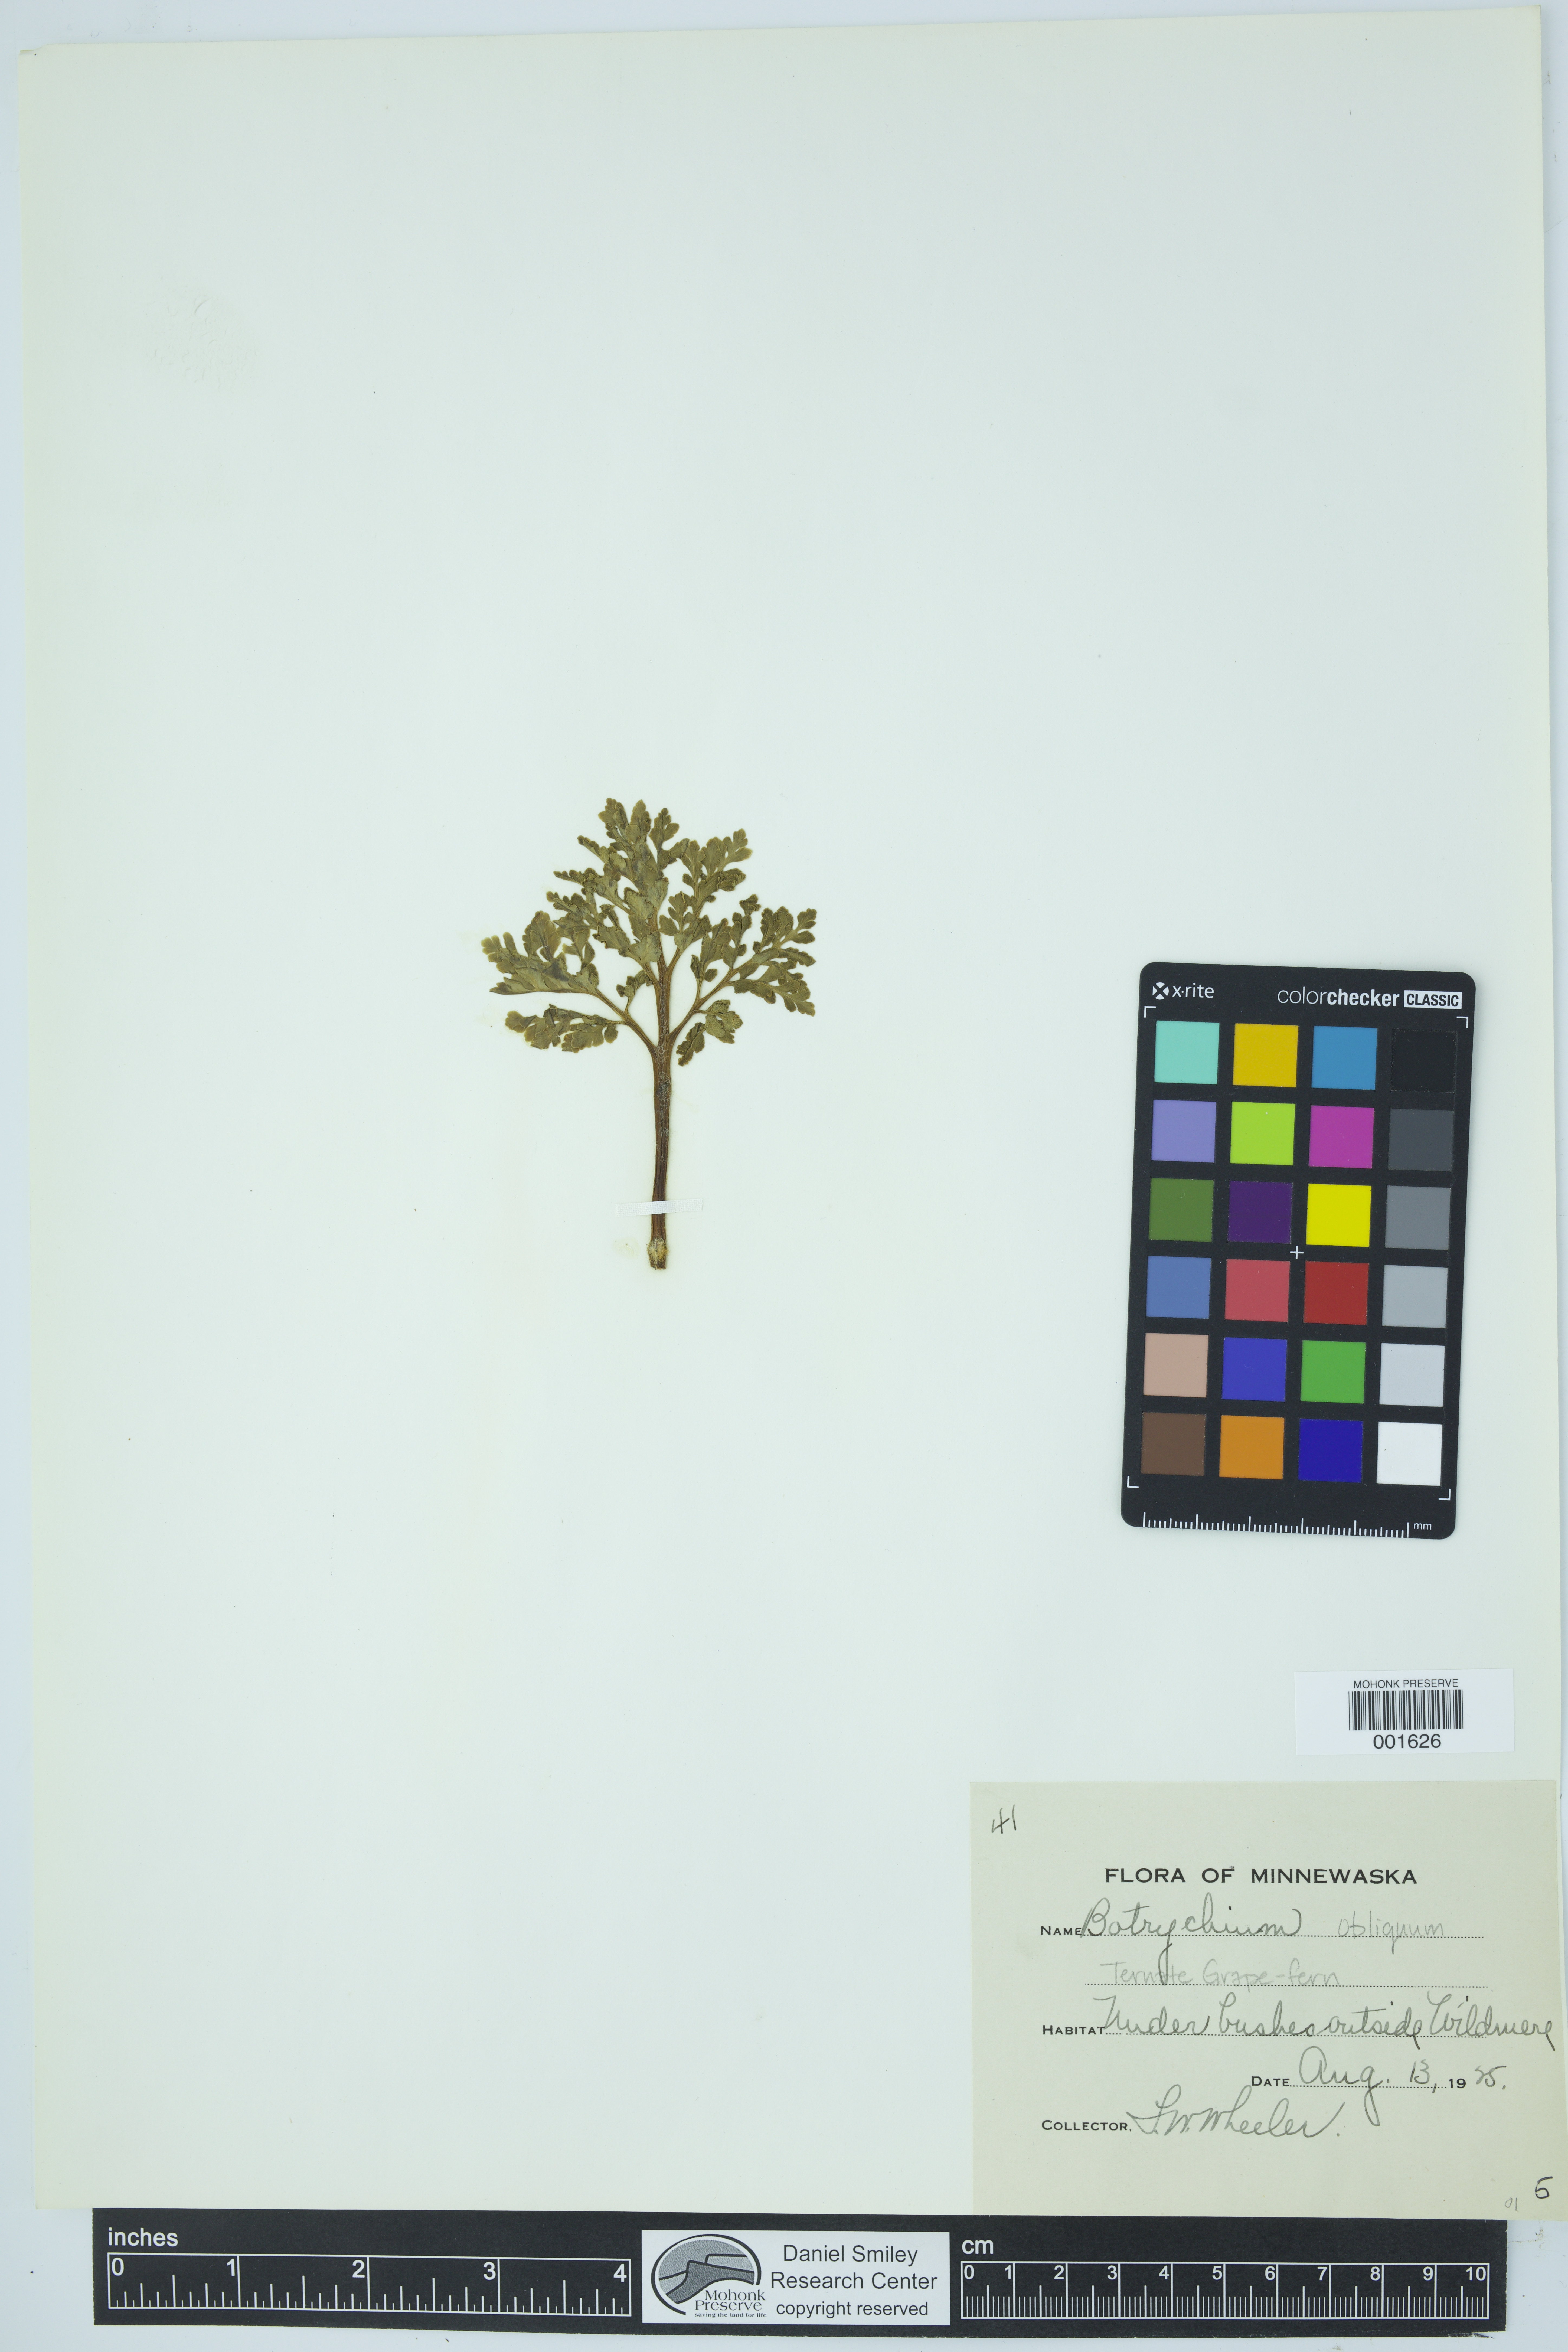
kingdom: Plantae
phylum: Tracheophyta
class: Polypodiopsida
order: Ophioglossales
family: Ophioglossaceae
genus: Sceptridium
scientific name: Sceptridium dissectum
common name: Cut-leaved grapefern
